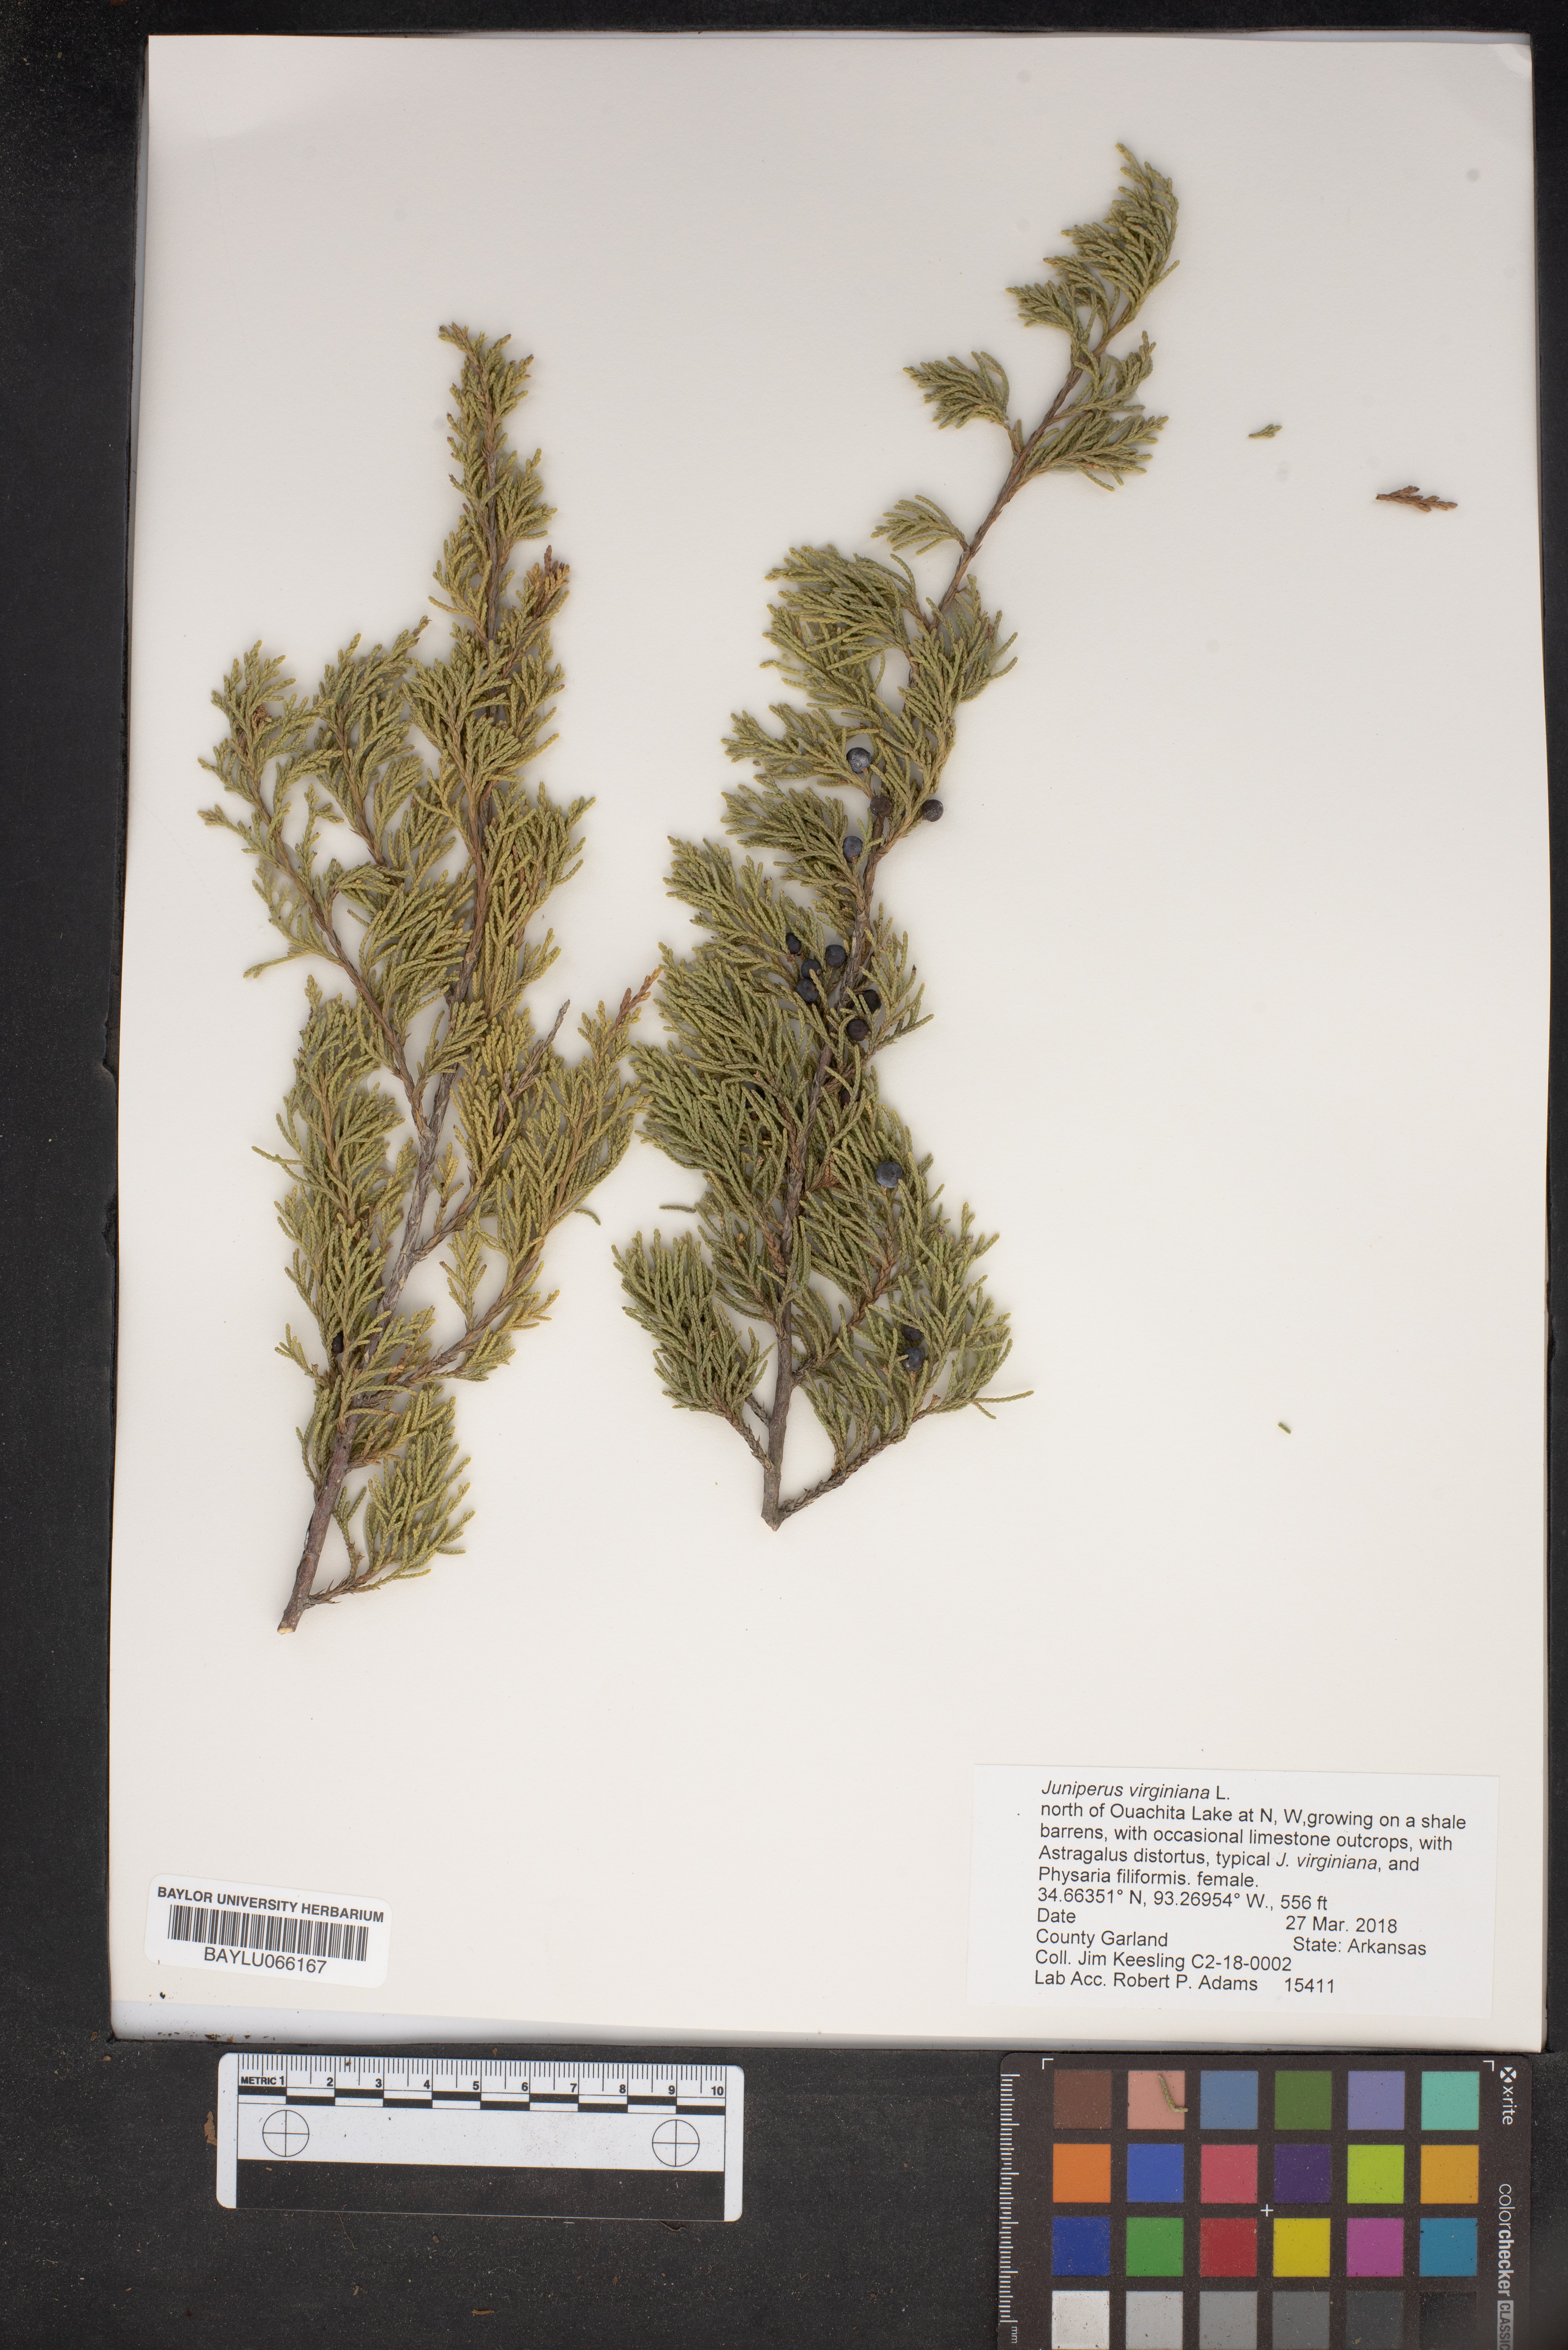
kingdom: Plantae
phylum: Tracheophyta
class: Pinopsida
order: Pinales
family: Cupressaceae
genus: Juniperus
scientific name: Juniperus virginiana
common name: Red juniper
